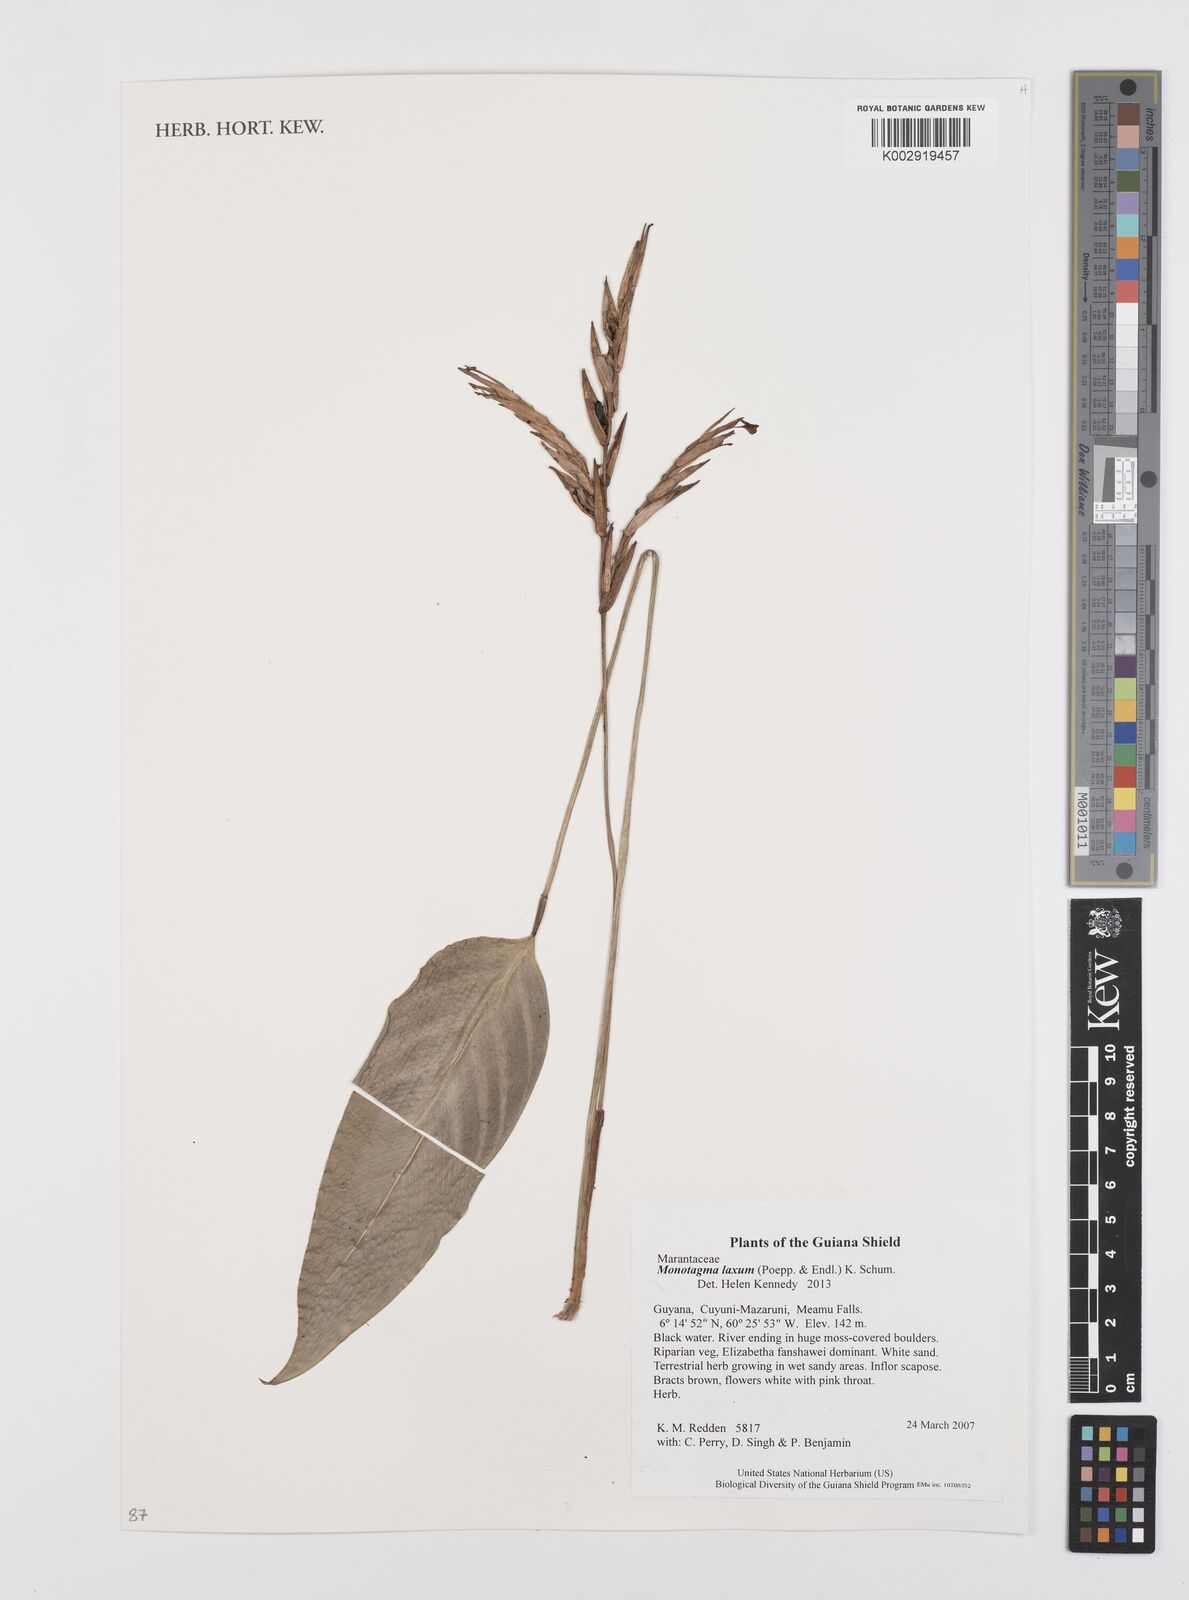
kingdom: Plantae
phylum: Tracheophyta
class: Liliopsida
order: Zingiberales
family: Marantaceae
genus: Monotagma
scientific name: Monotagma laxum
